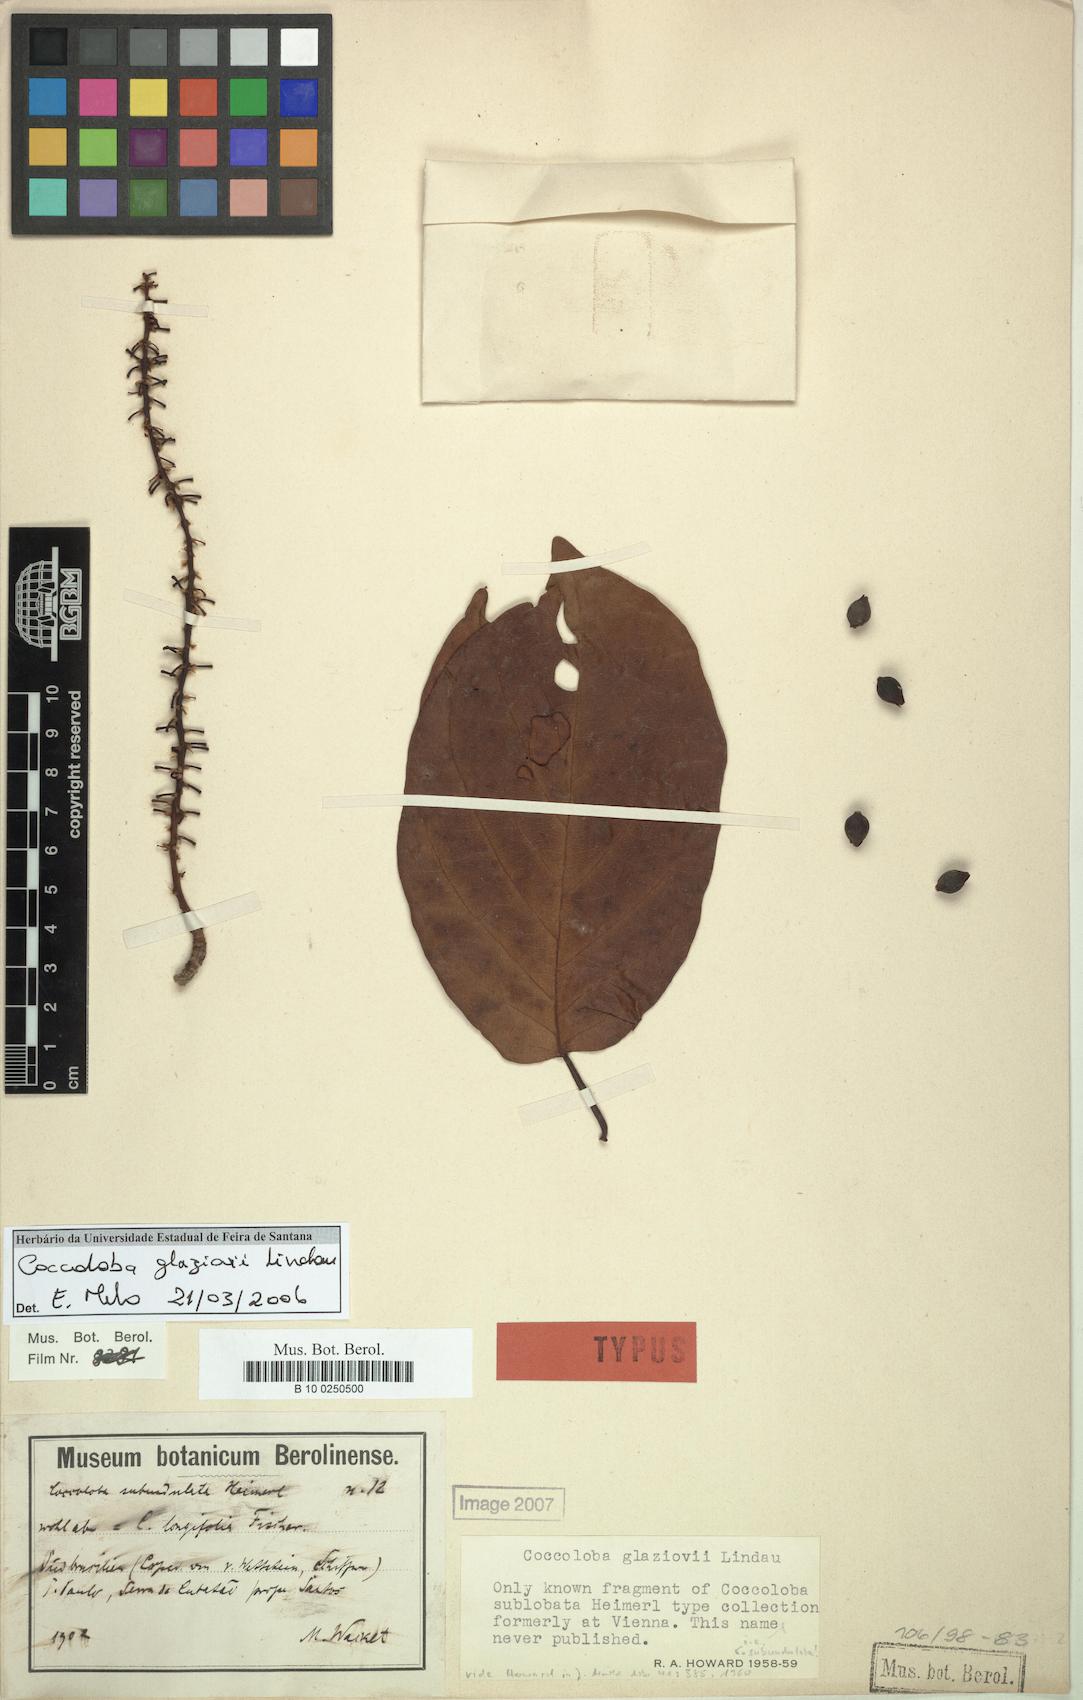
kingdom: Plantae
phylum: Tracheophyta
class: Magnoliopsida
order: Caryophyllales
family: Polygonaceae
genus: Coccoloba
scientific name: Coccoloba glaziovii
